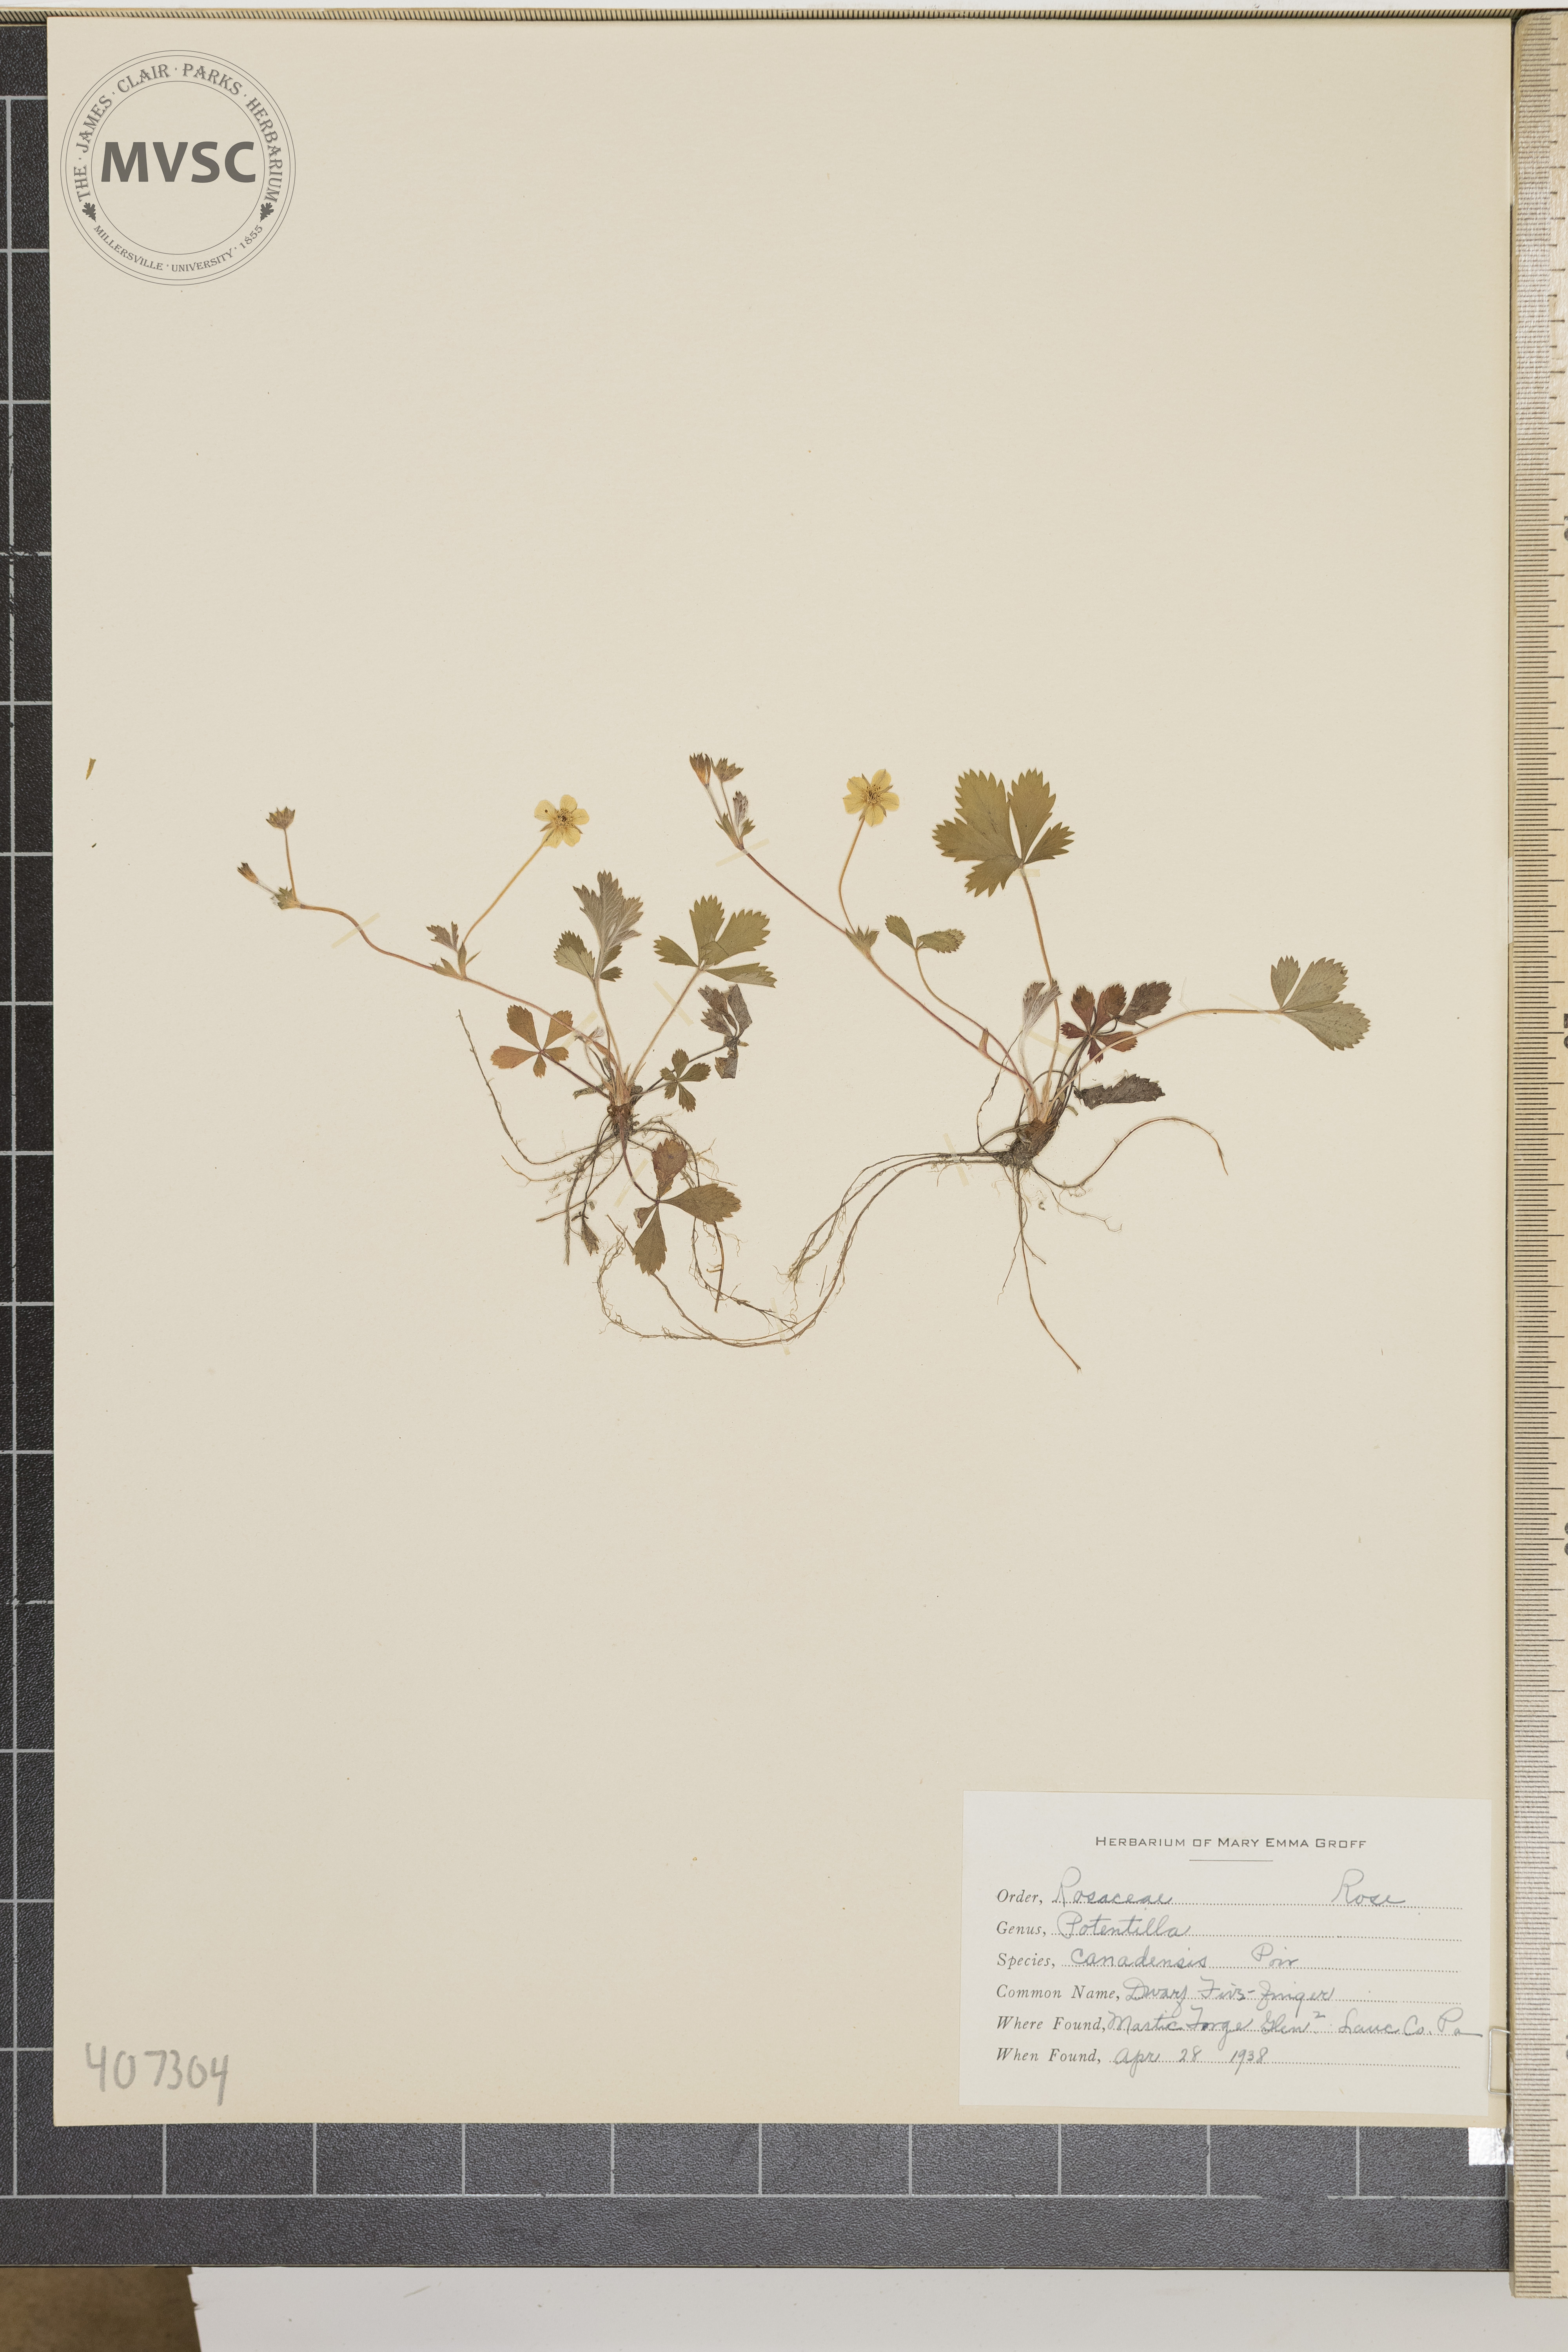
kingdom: Plantae
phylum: Tracheophyta
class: Magnoliopsida
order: Rosales
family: Rosaceae
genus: Potentilla
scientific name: Potentilla canadensis
